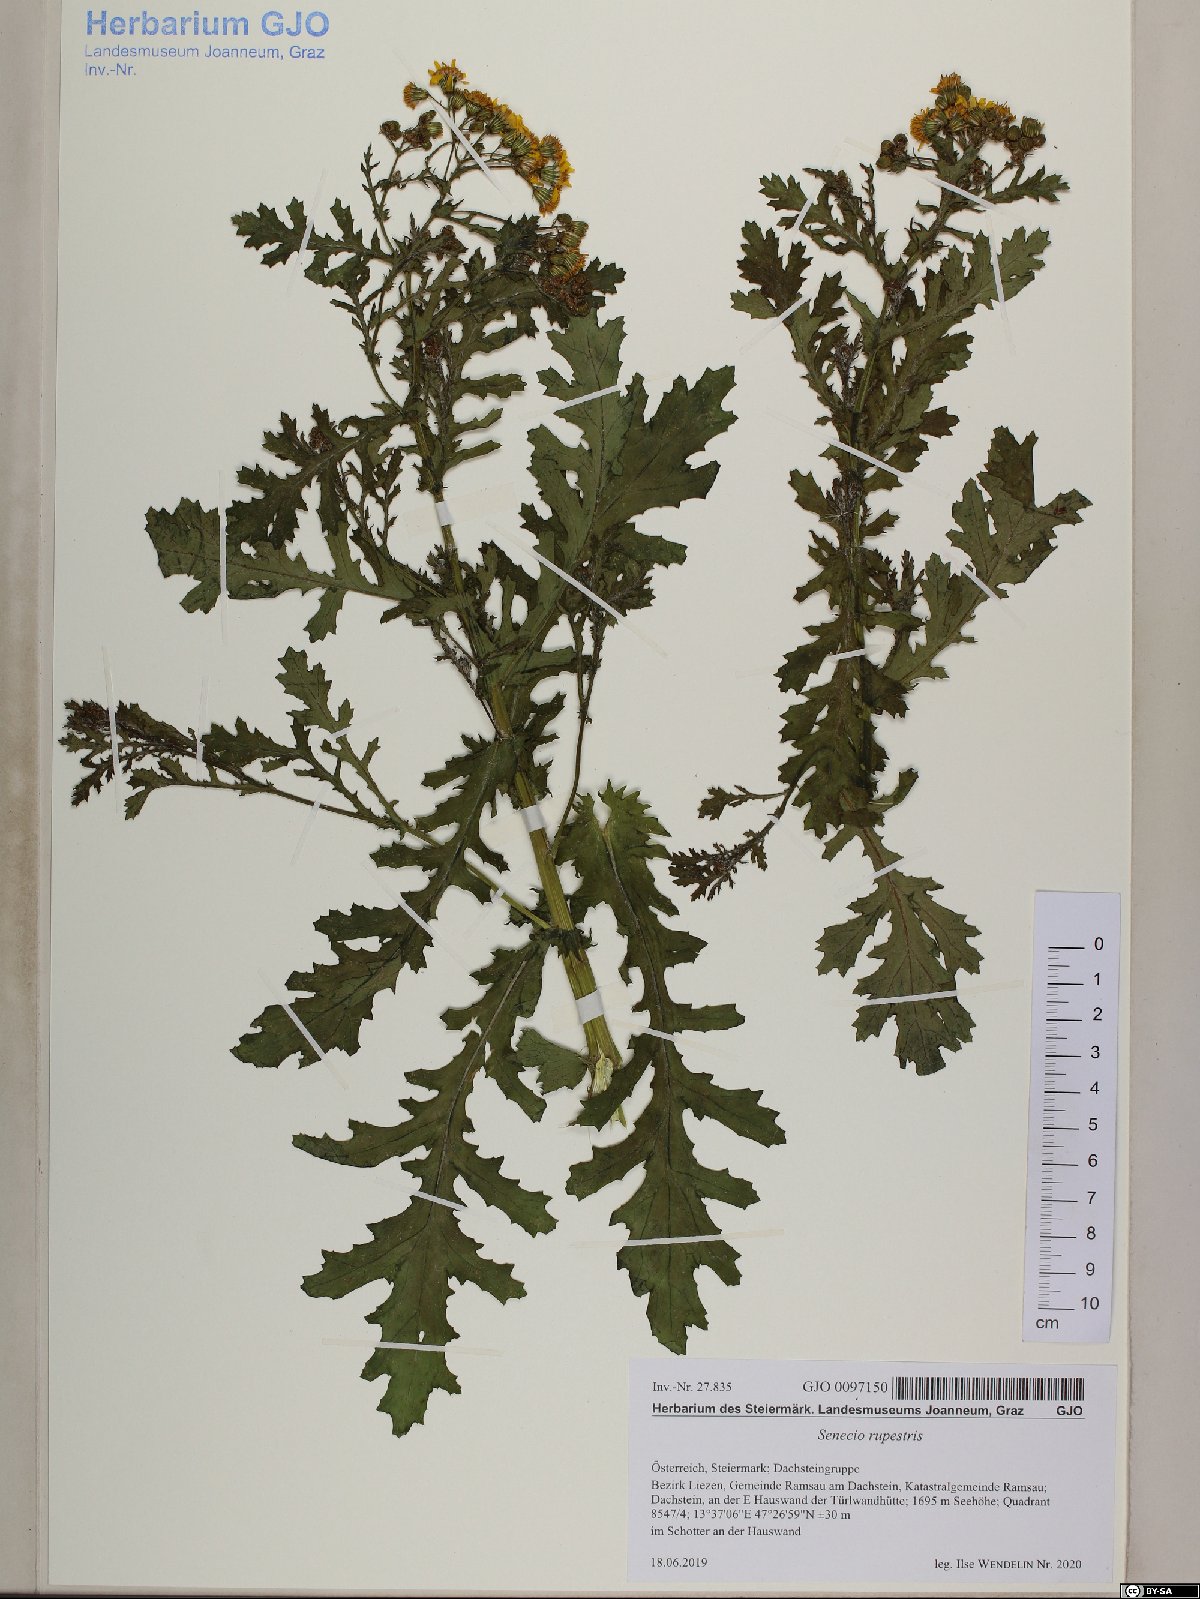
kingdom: Plantae
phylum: Tracheophyta
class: Magnoliopsida
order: Asterales
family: Asteraceae
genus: Senecio
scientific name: Senecio rupestris
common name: Rock ragwort
